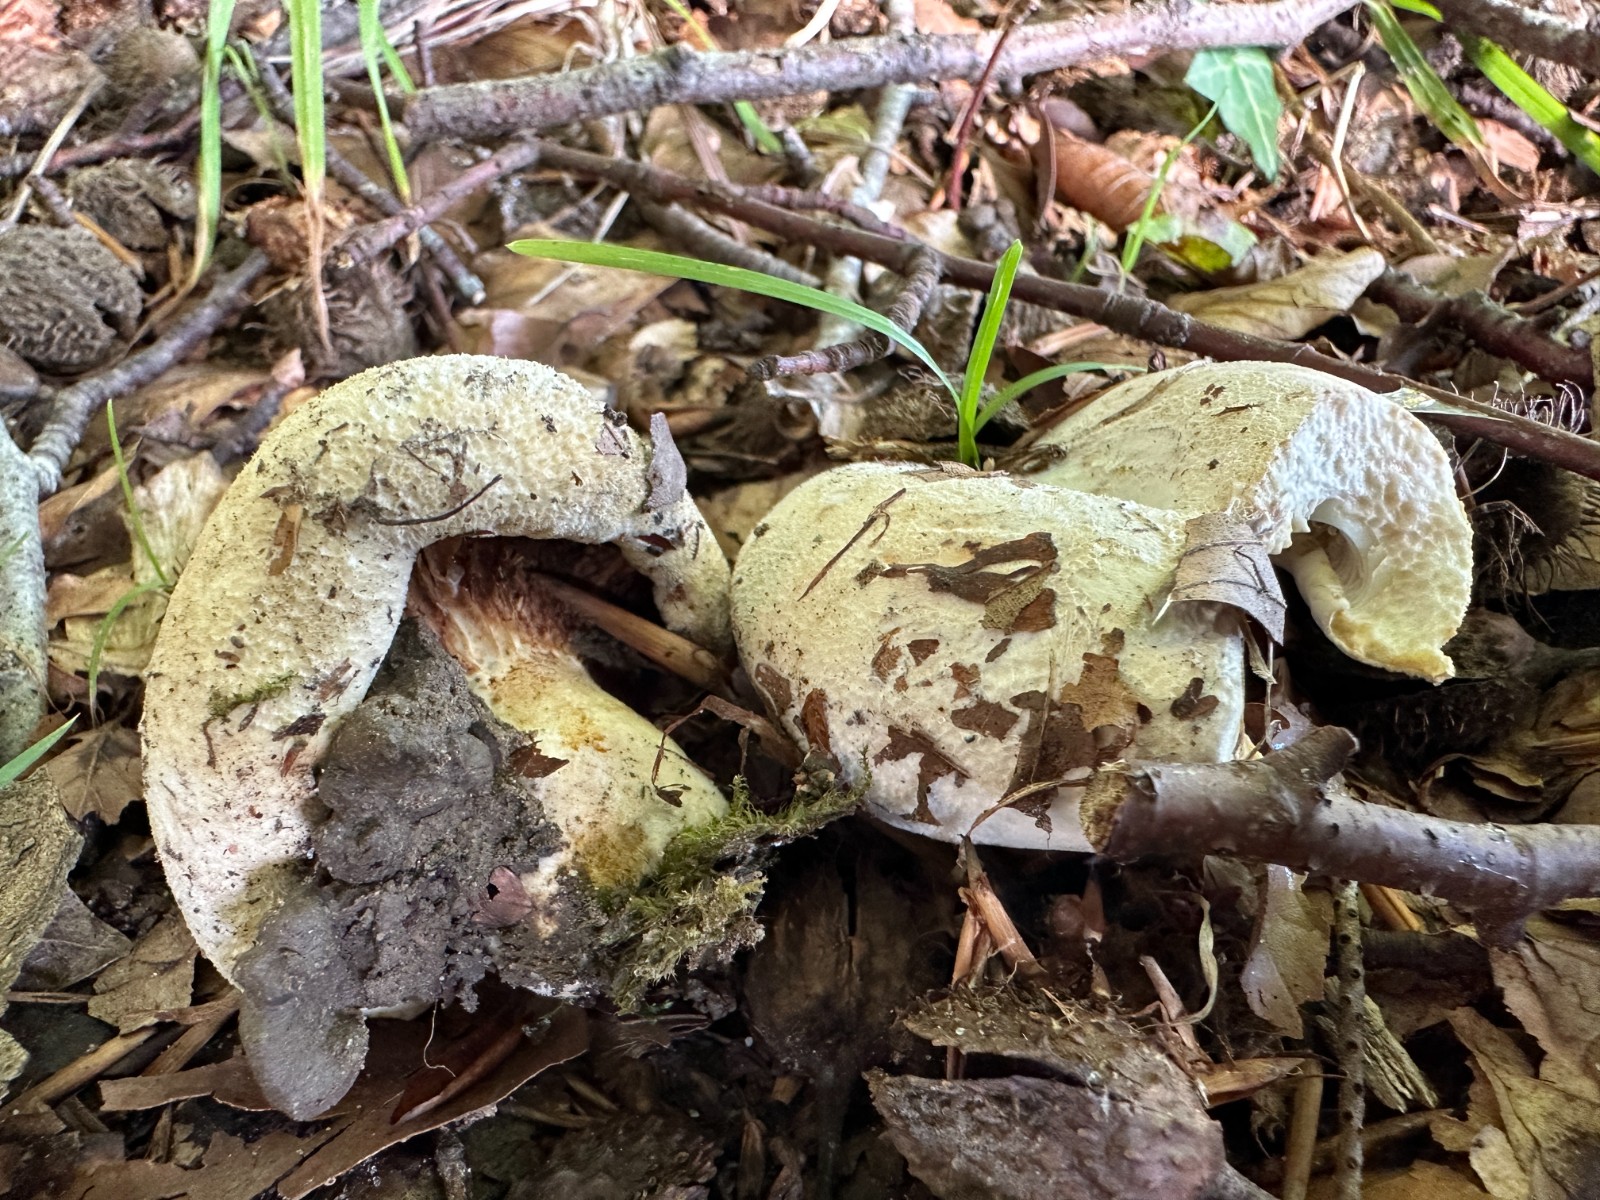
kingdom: Fungi
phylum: Basidiomycota
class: Agaricomycetes
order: Russulales
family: Russulaceae
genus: Lactifluus
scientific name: Lactifluus vellereus
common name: hvidfiltet mælkehat
